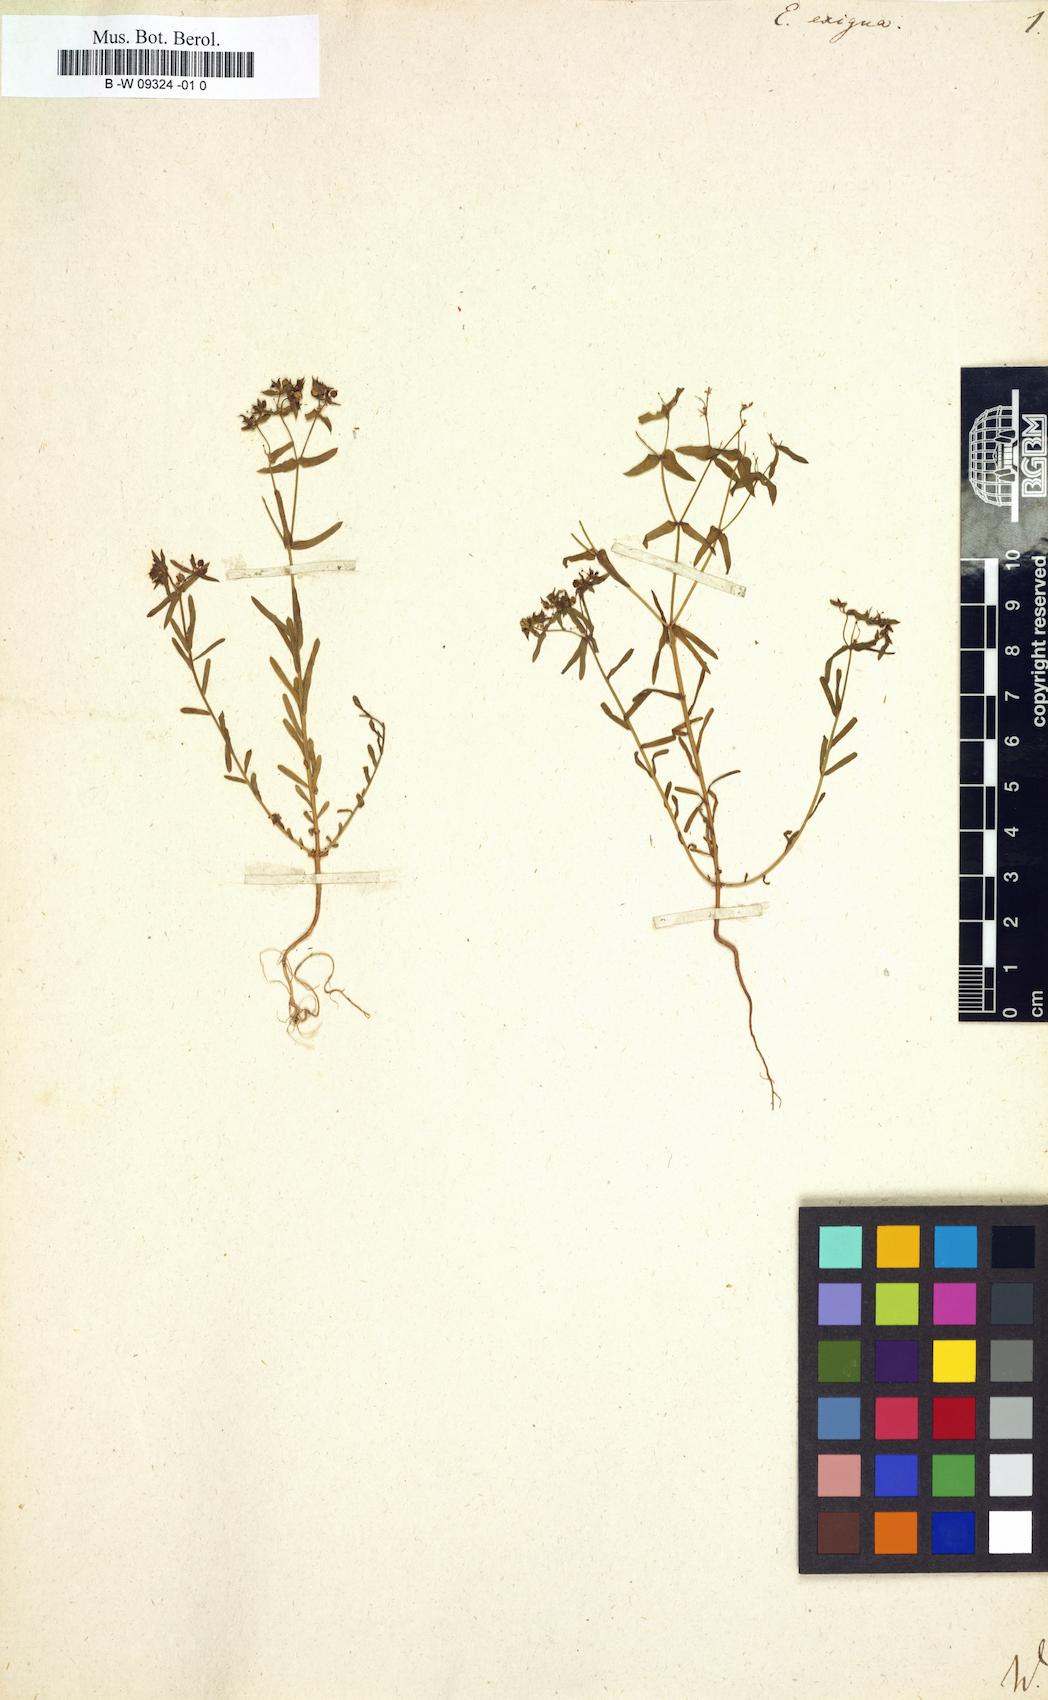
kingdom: Plantae
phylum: Tracheophyta
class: Magnoliopsida
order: Malpighiales
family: Euphorbiaceae
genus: Euphorbia
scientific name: Euphorbia exigua
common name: Dwarf spurge
